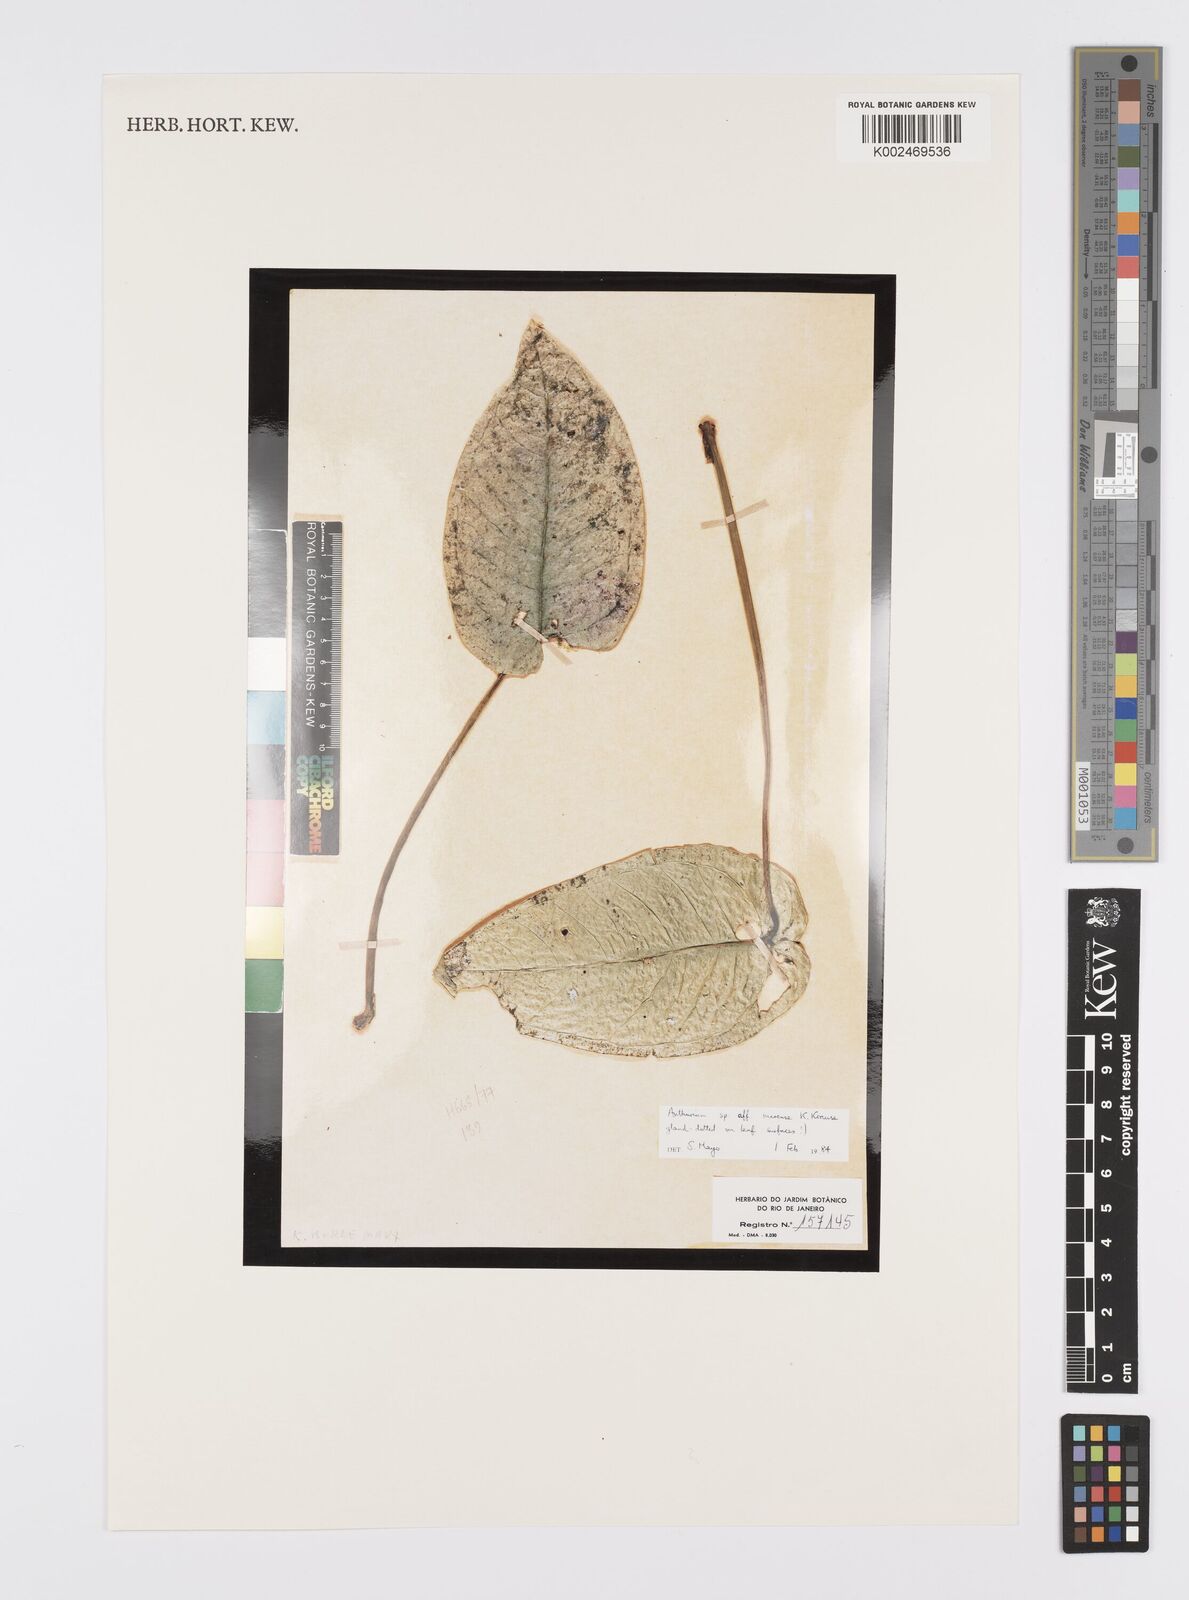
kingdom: Plantae
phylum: Tracheophyta
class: Liliopsida
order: Alismatales
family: Araceae
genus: Anthurium
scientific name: Anthurium marense
